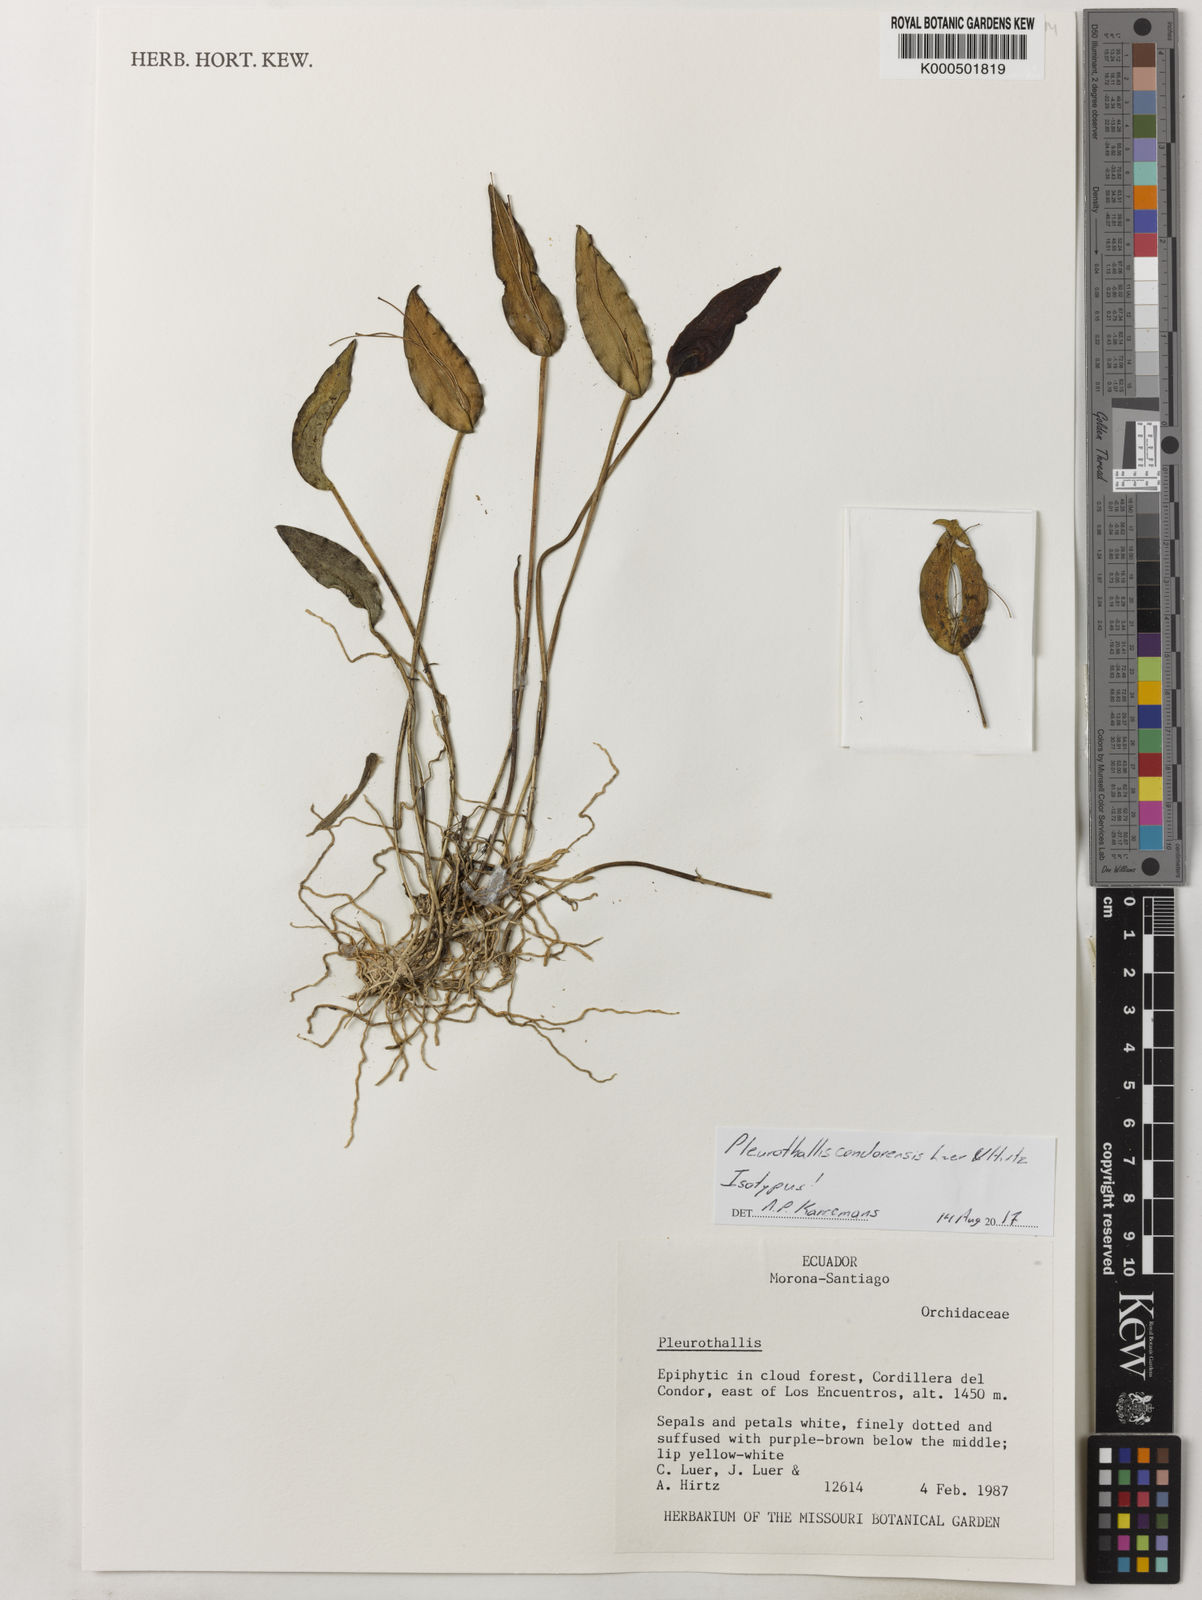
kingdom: Plantae
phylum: Tracheophyta
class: Liliopsida
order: Asparagales
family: Orchidaceae
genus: Pleurothallis
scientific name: Pleurothallis condorensis
